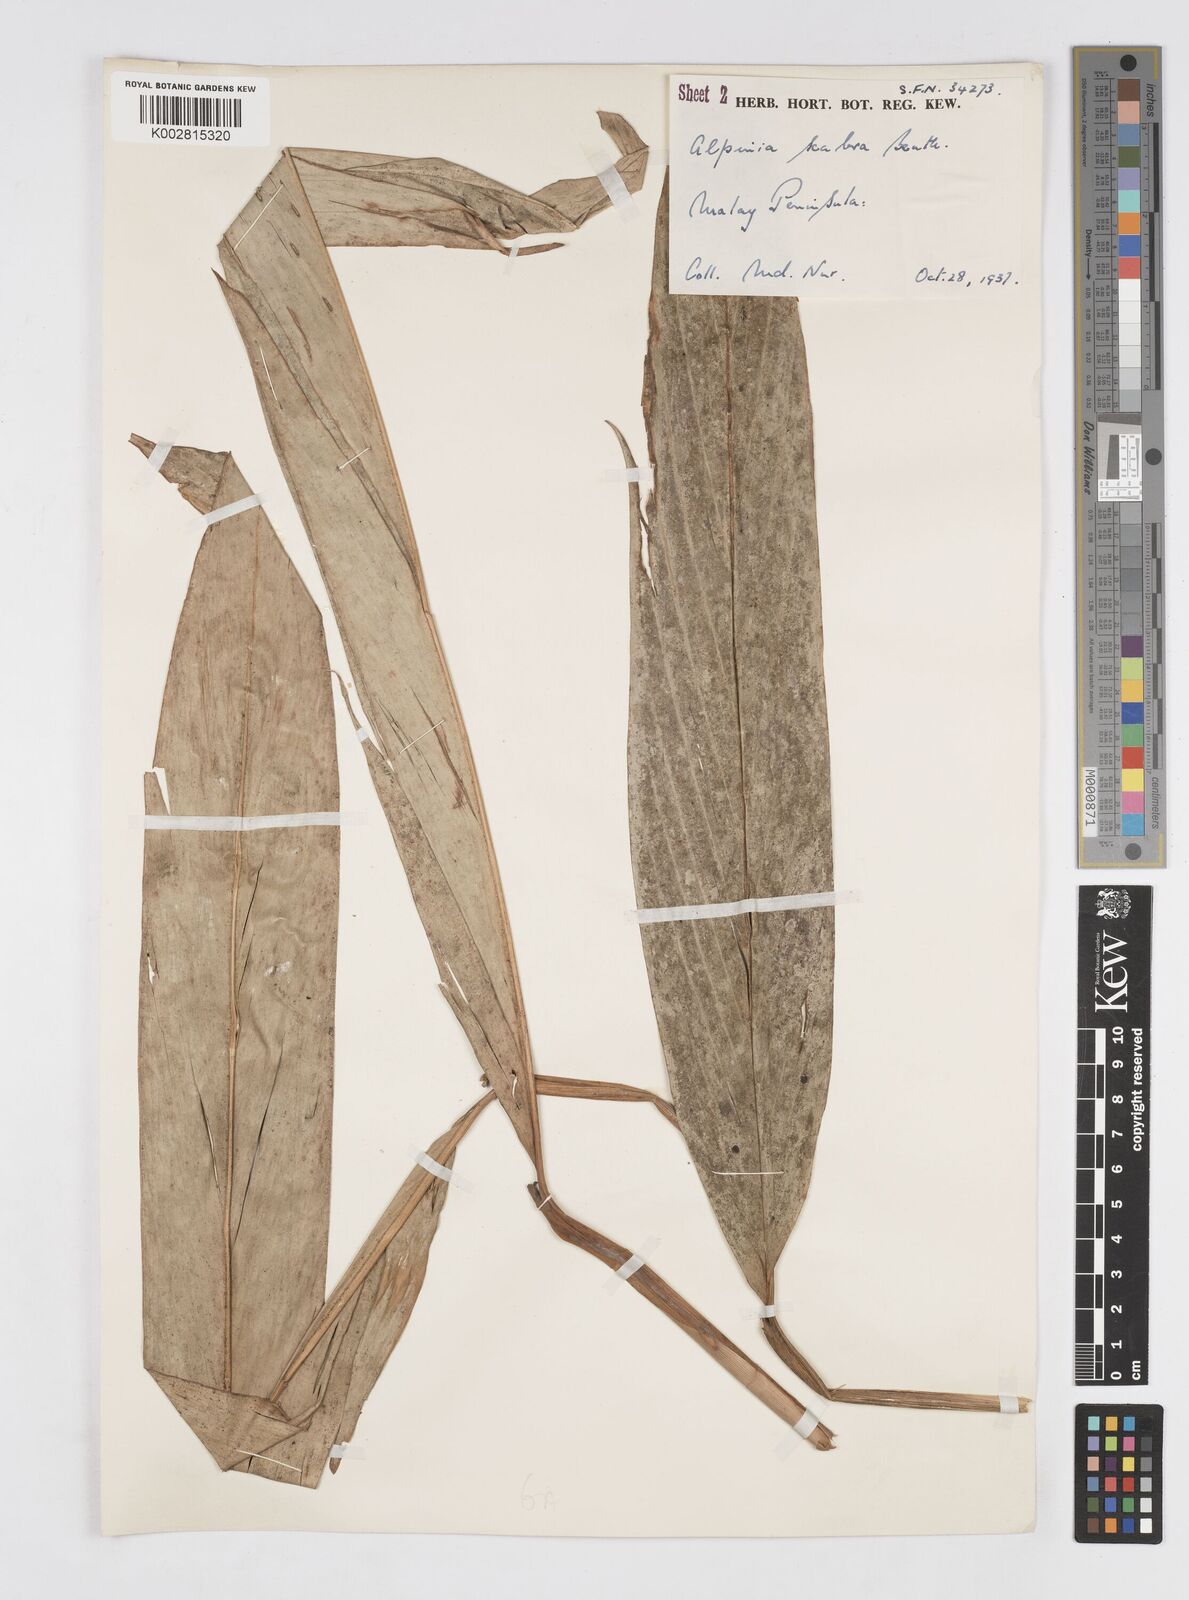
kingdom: Plantae
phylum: Tracheophyta
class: Liliopsida
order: Zingiberales
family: Zingiberaceae
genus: Alpinia
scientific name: Alpinia scabra
